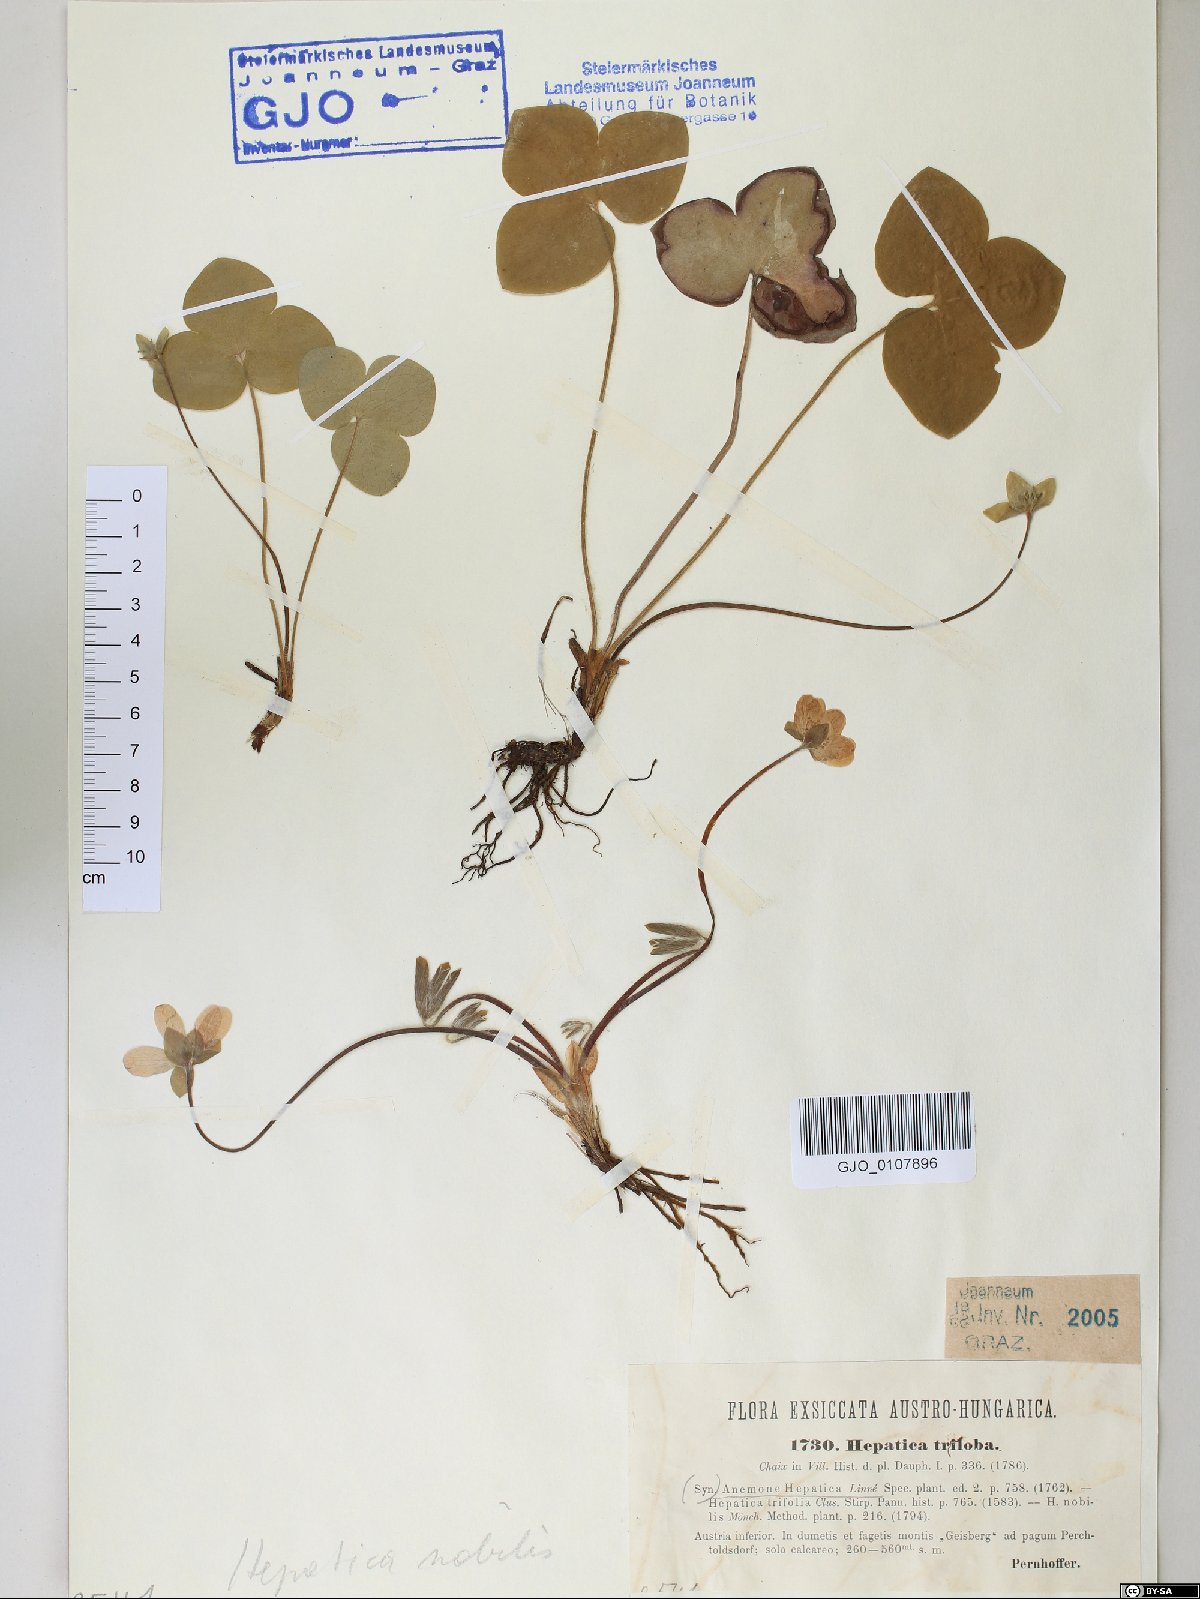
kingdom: Plantae
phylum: Tracheophyta
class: Magnoliopsida
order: Ranunculales
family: Ranunculaceae
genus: Hepatica
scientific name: Hepatica nobilis
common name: Liverleaf
